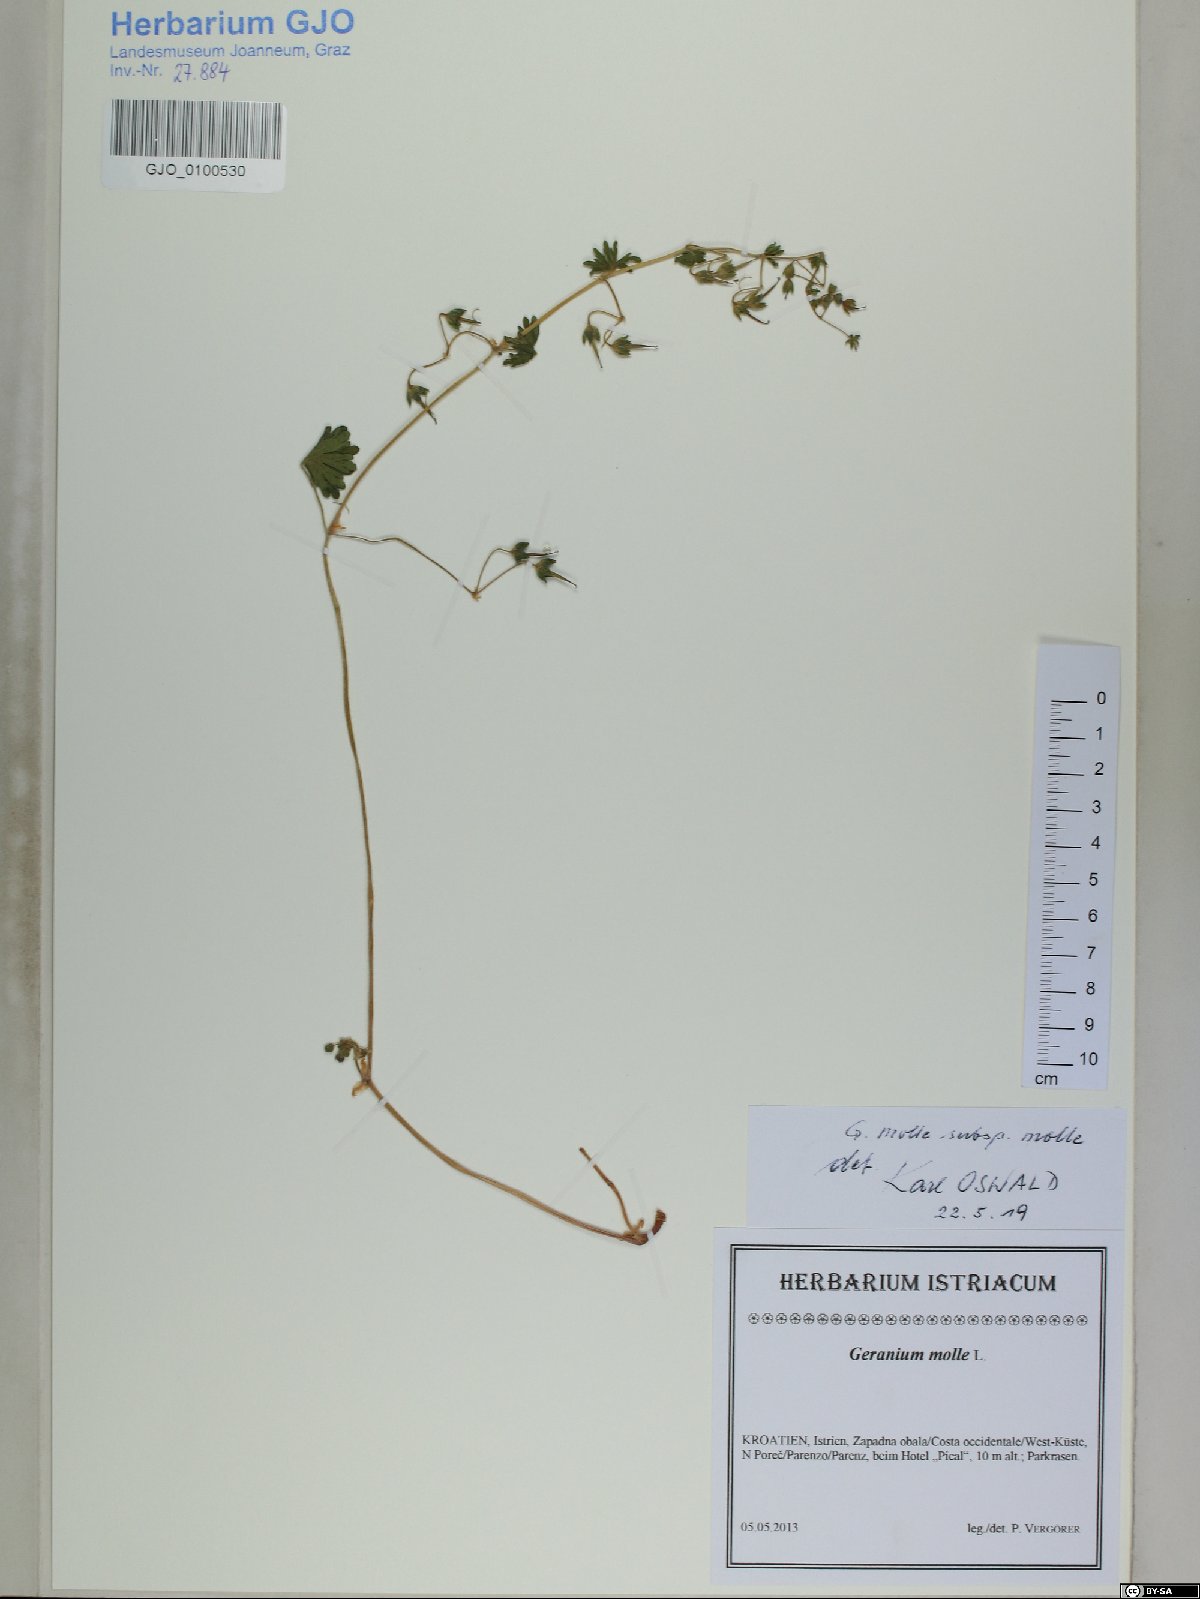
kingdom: Plantae
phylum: Tracheophyta
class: Magnoliopsida
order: Geraniales
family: Geraniaceae
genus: Geranium
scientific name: Geranium molle
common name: Dove's-foot crane's-bill
